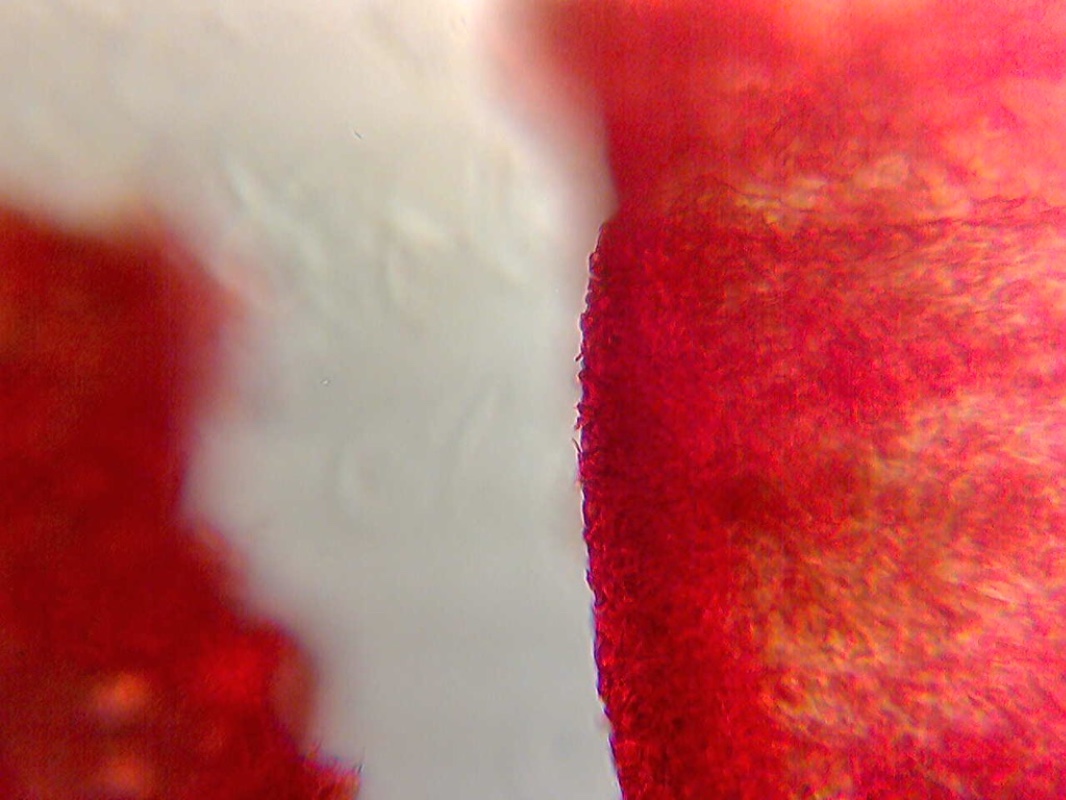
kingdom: Fungi
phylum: Ascomycota
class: Pezizomycetes
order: Pezizales
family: Tuberaceae
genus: Tuber
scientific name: Tuber maculatum
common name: plettet trøffel
